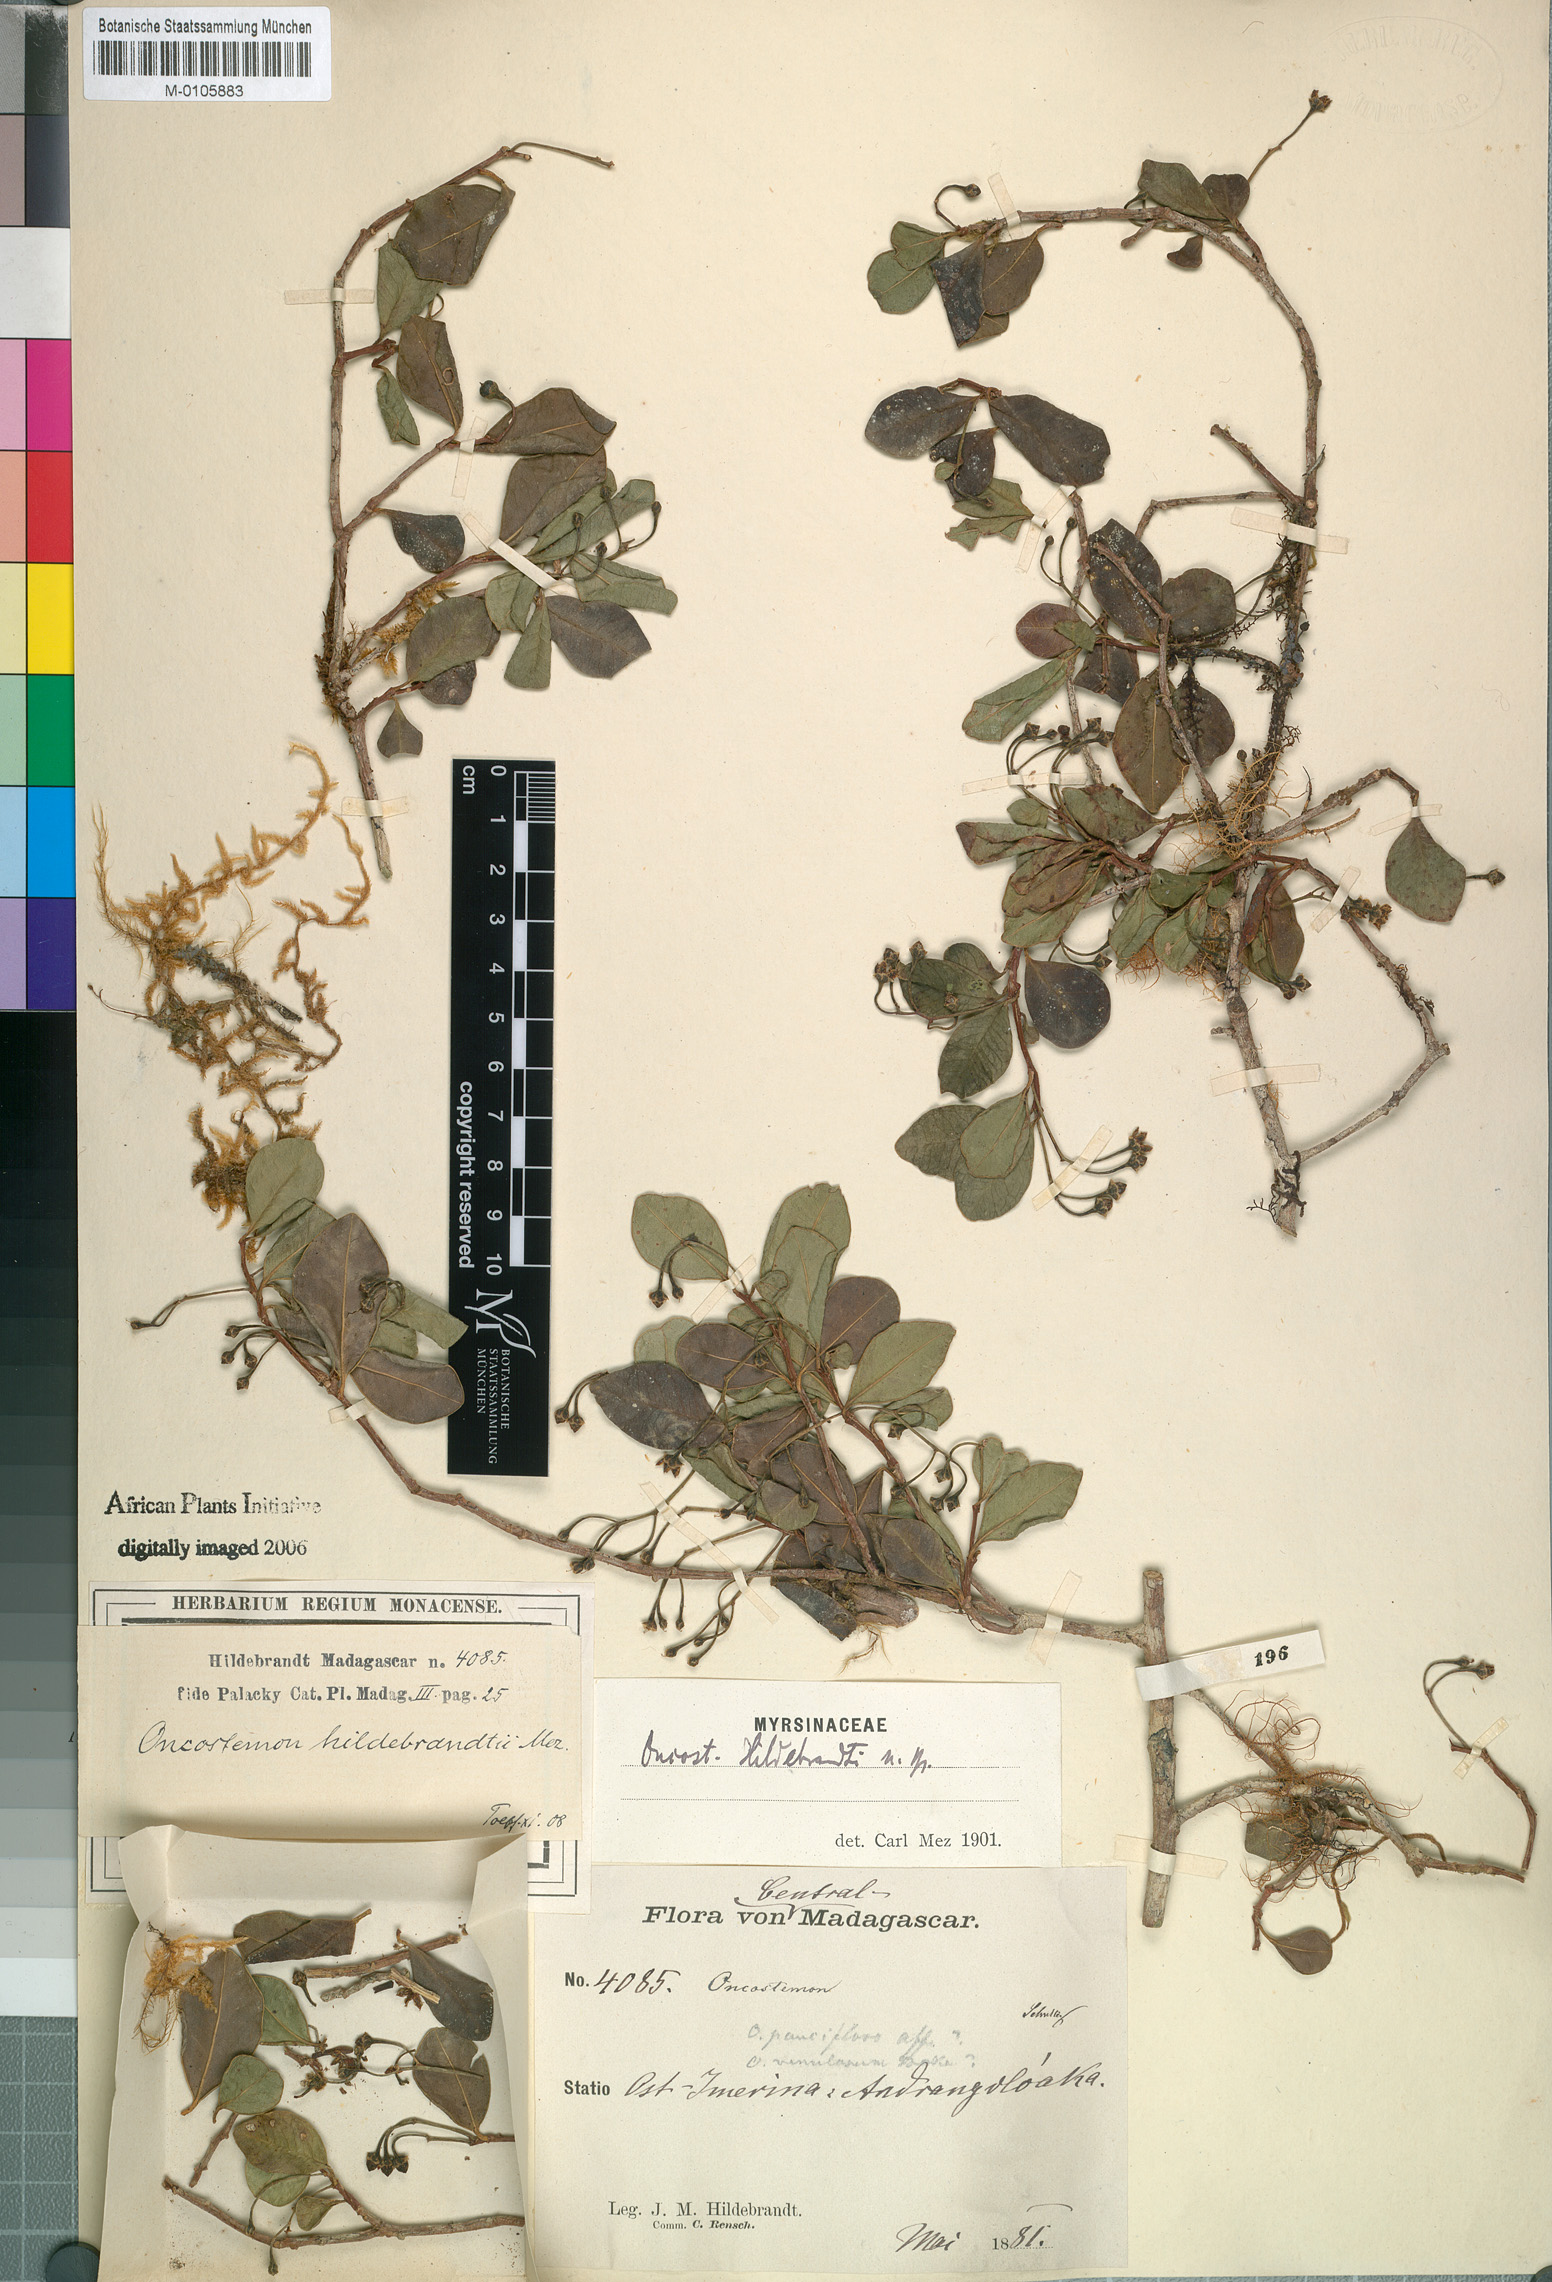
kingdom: Plantae
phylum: Tracheophyta
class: Magnoliopsida
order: Ericales
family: Primulaceae
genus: Oncostemum
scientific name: Oncostemum hildebrandtii
